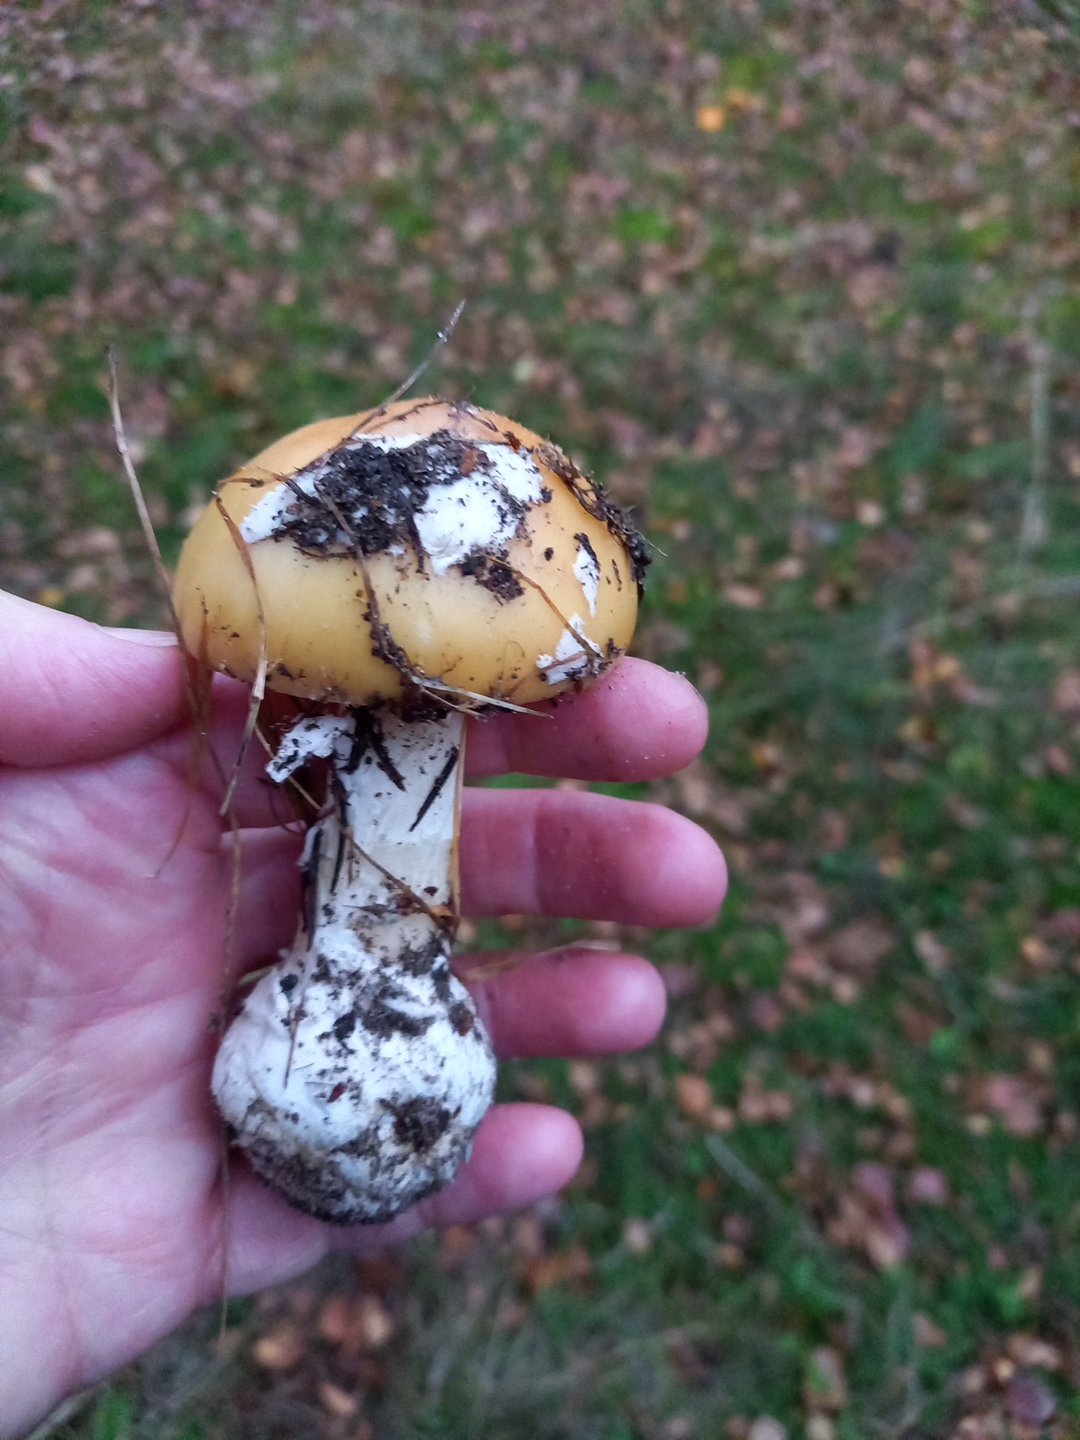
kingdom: Fungi
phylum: Basidiomycota
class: Agaricomycetes
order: Agaricales
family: Amanitaceae
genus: Amanita
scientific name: Amanita gemmata
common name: okkergul fluesvamp
